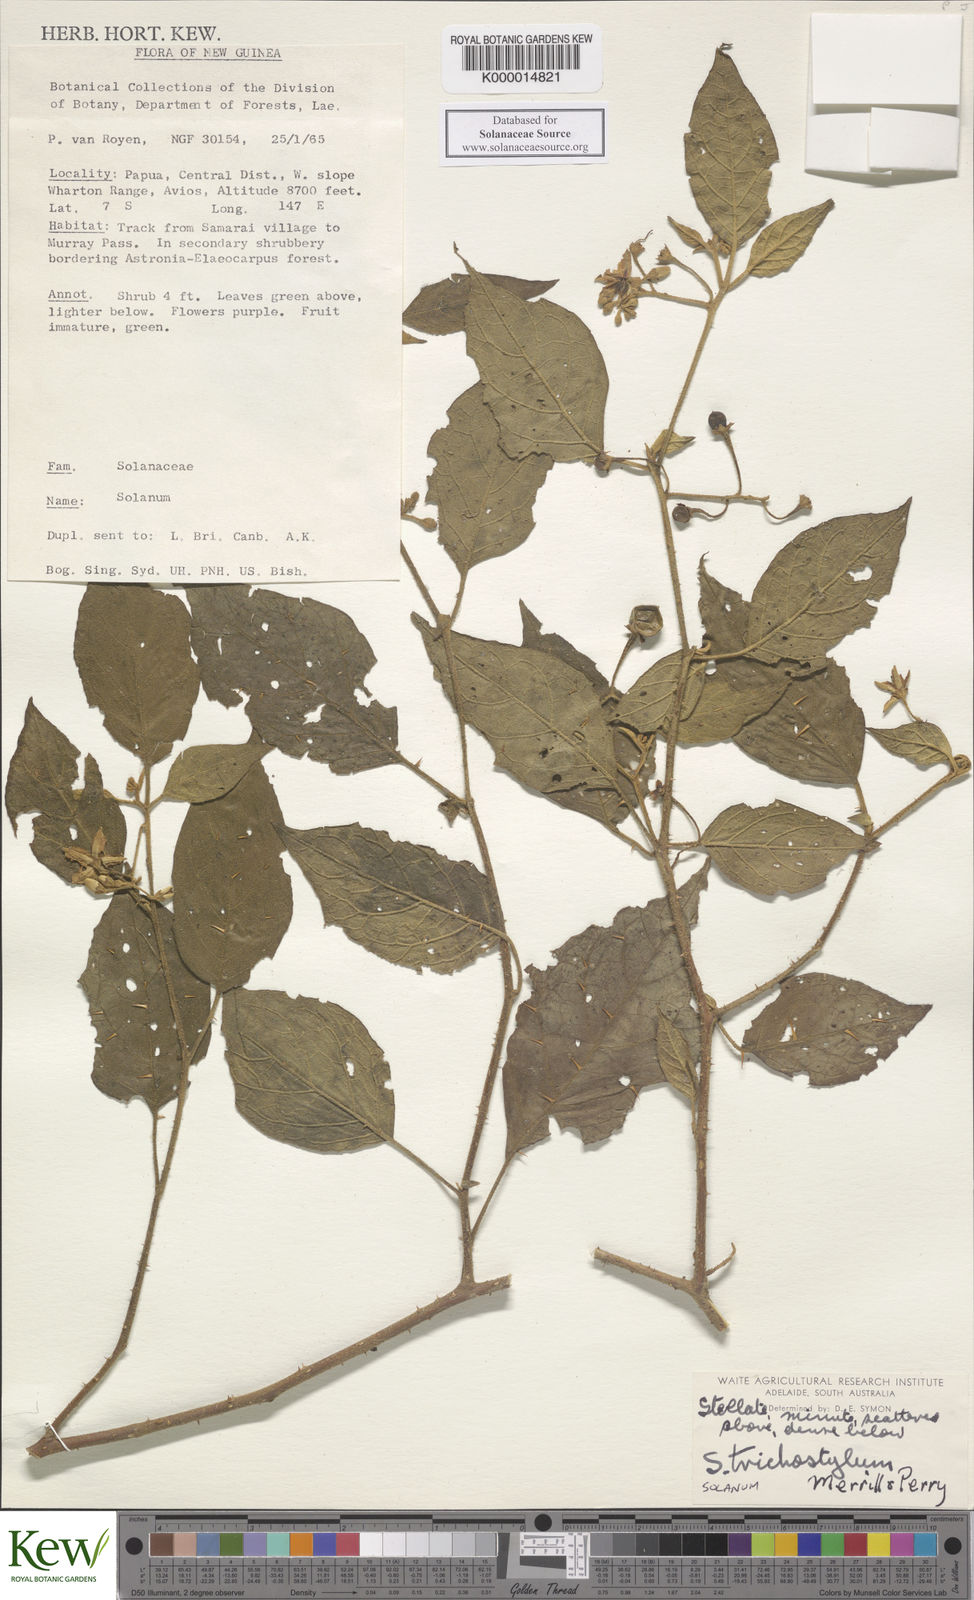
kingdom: Plantae
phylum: Tracheophyta
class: Magnoliopsida
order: Solanales
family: Solanaceae
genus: Solanum
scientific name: Solanum trichostylum
